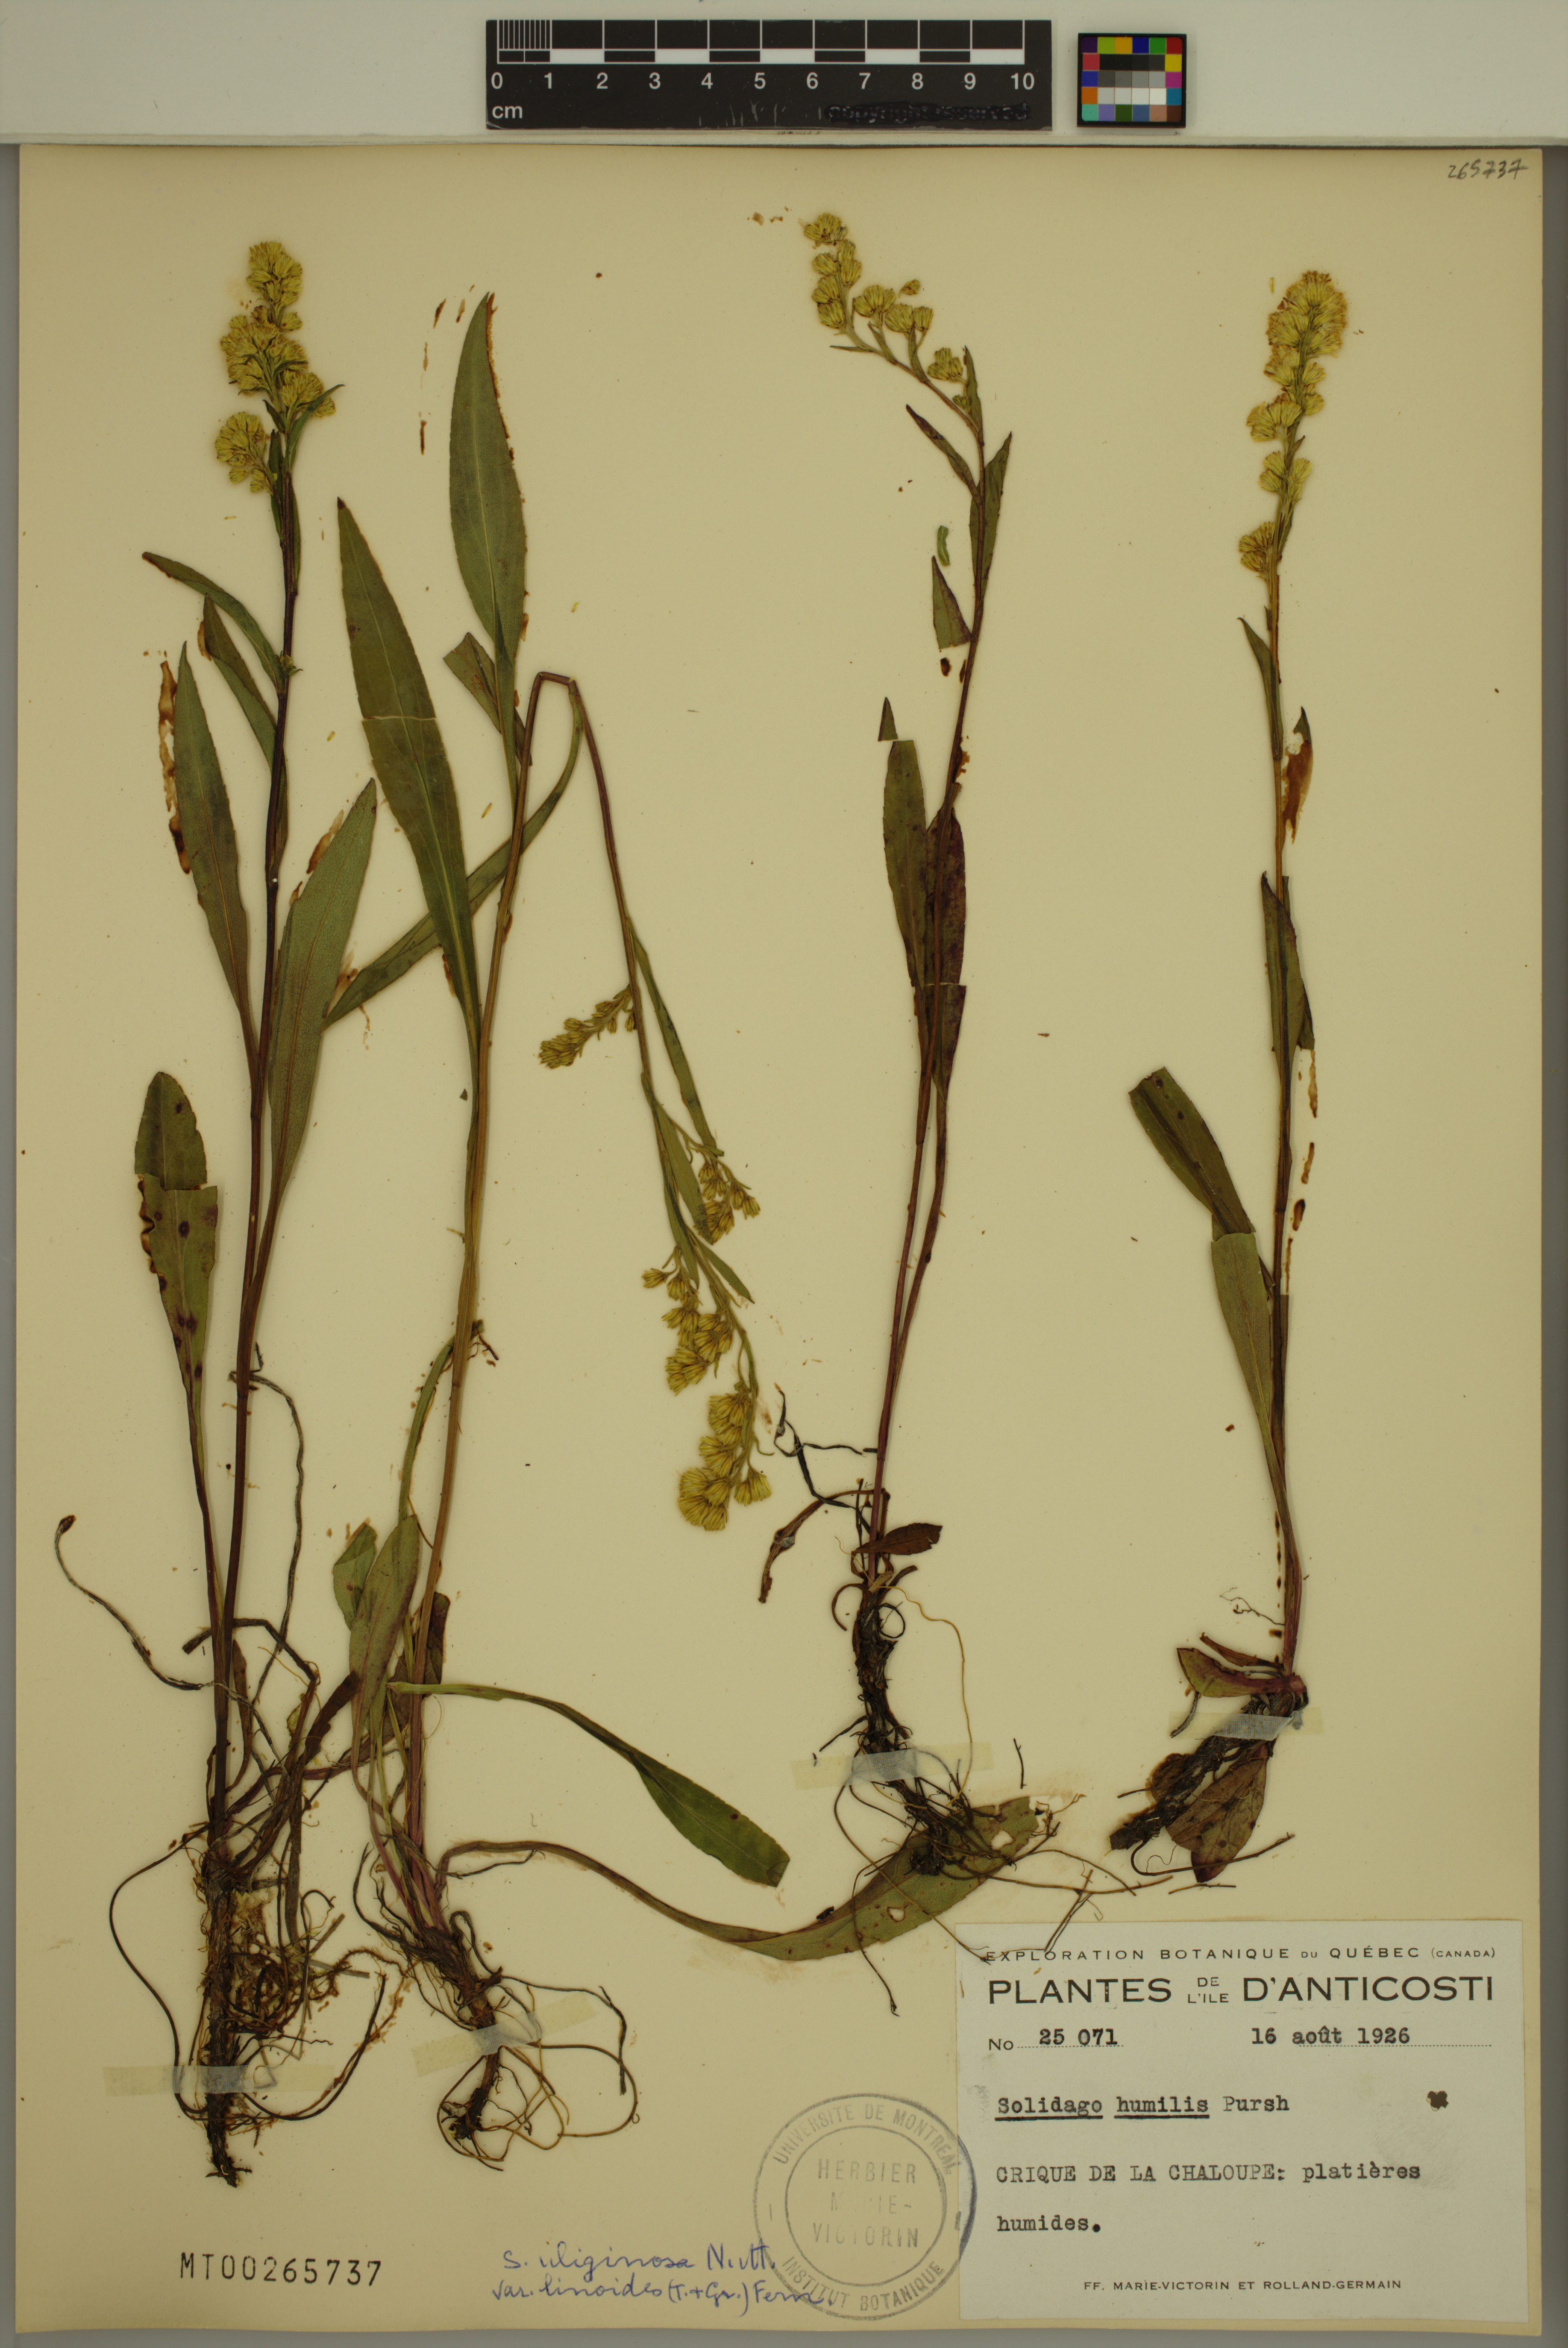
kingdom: Plantae
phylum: Tracheophyta
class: Magnoliopsida
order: Asterales
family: Asteraceae
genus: Solidago
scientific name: Solidago uliginosa
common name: Bog goldenrod
